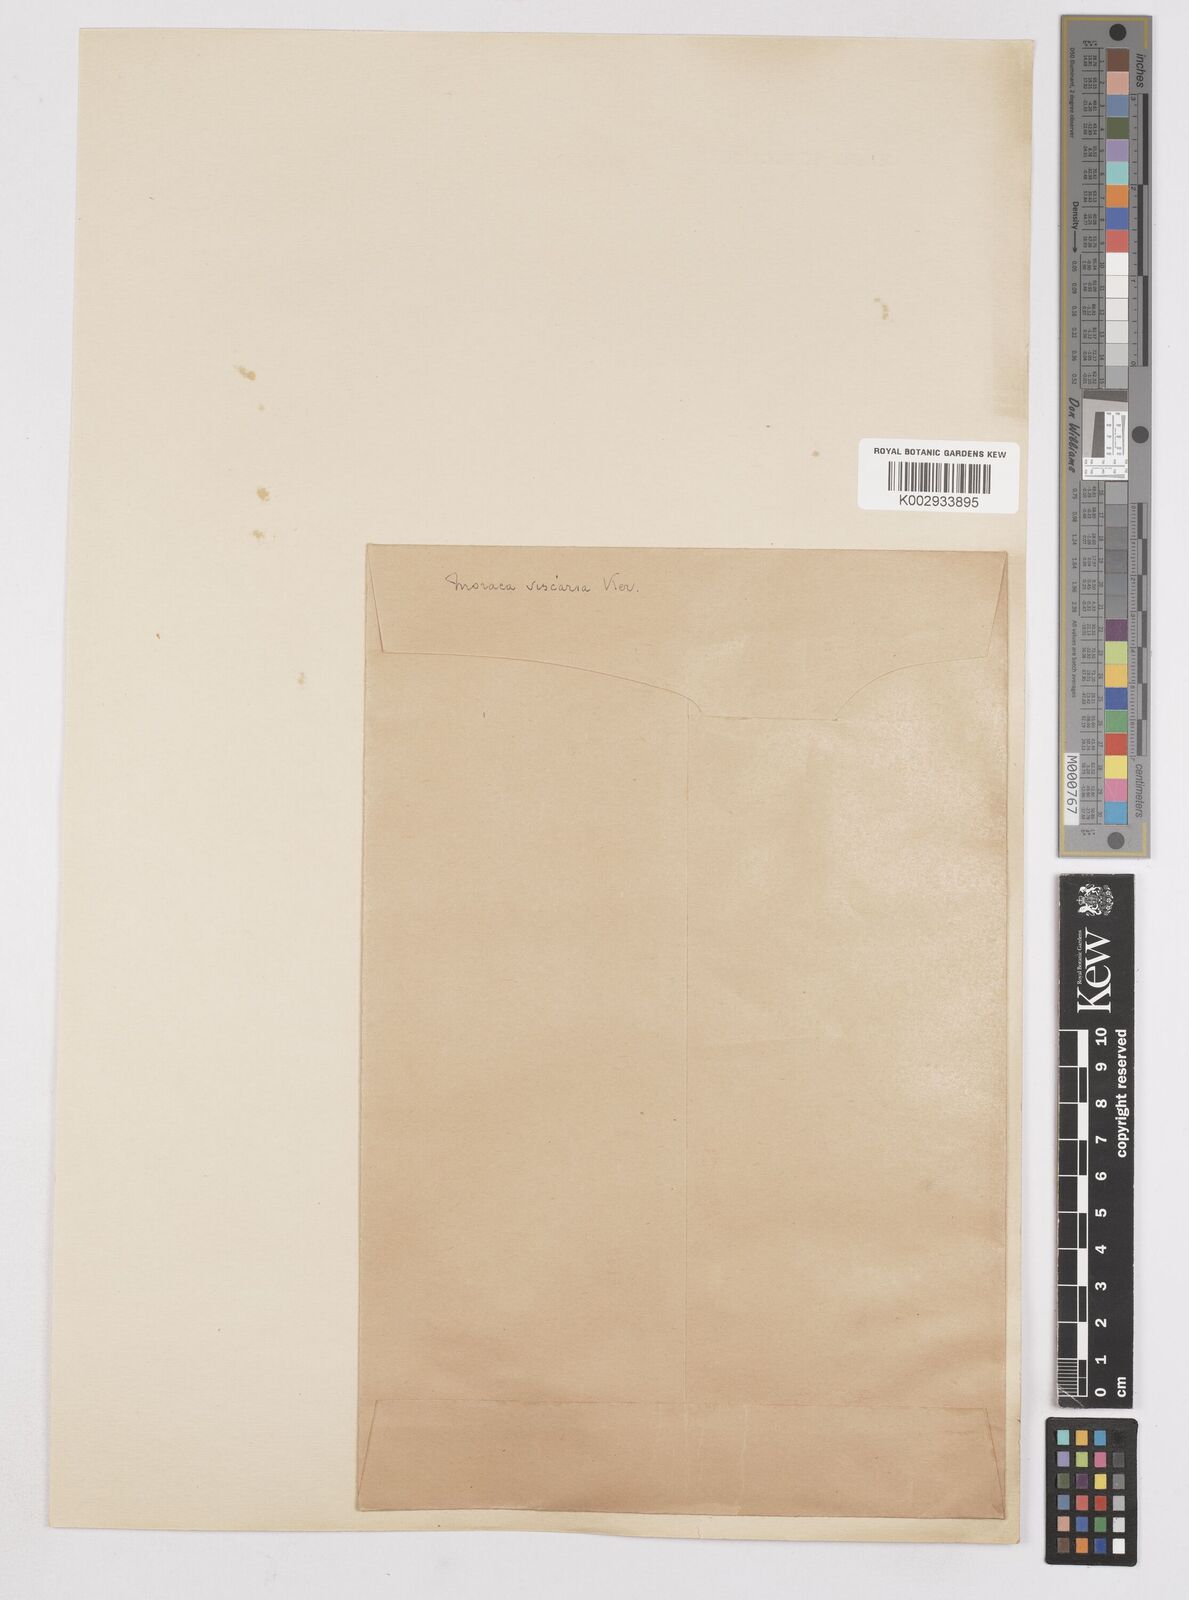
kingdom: Plantae
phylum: Tracheophyta
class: Liliopsida
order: Asparagales
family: Iridaceae
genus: Moraea
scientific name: Moraea viscaria
